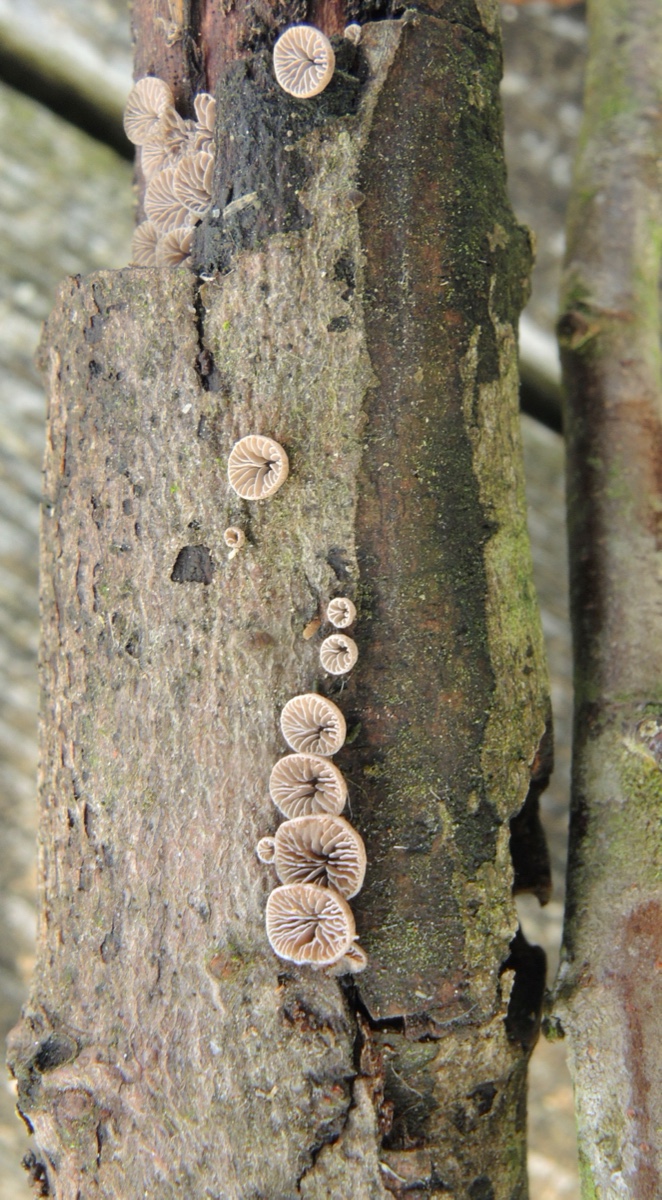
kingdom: Fungi
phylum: Basidiomycota
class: Agaricomycetes
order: Agaricales
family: Pleurotaceae
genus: Resupinatus
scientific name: Resupinatus trichotis
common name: mørkfiltet barkhat
